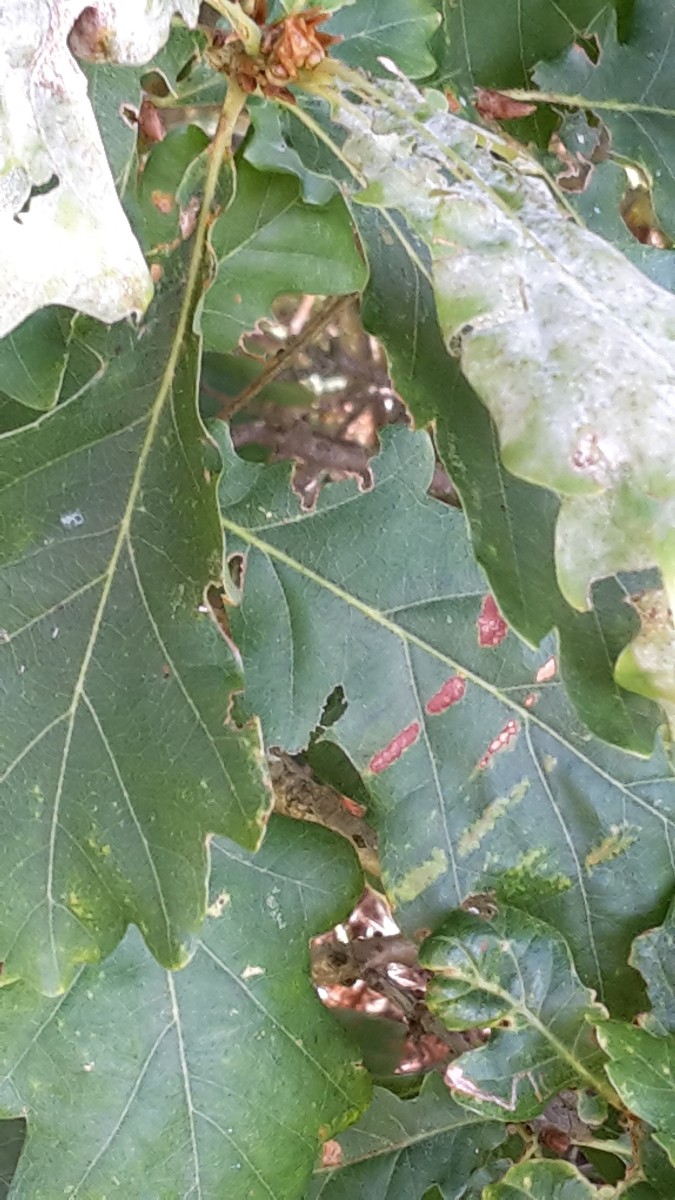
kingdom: Fungi
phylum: Ascomycota
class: Leotiomycetes
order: Helotiales
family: Erysiphaceae
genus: Erysiphe
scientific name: Erysiphe alphitoides
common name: ege-meldug
